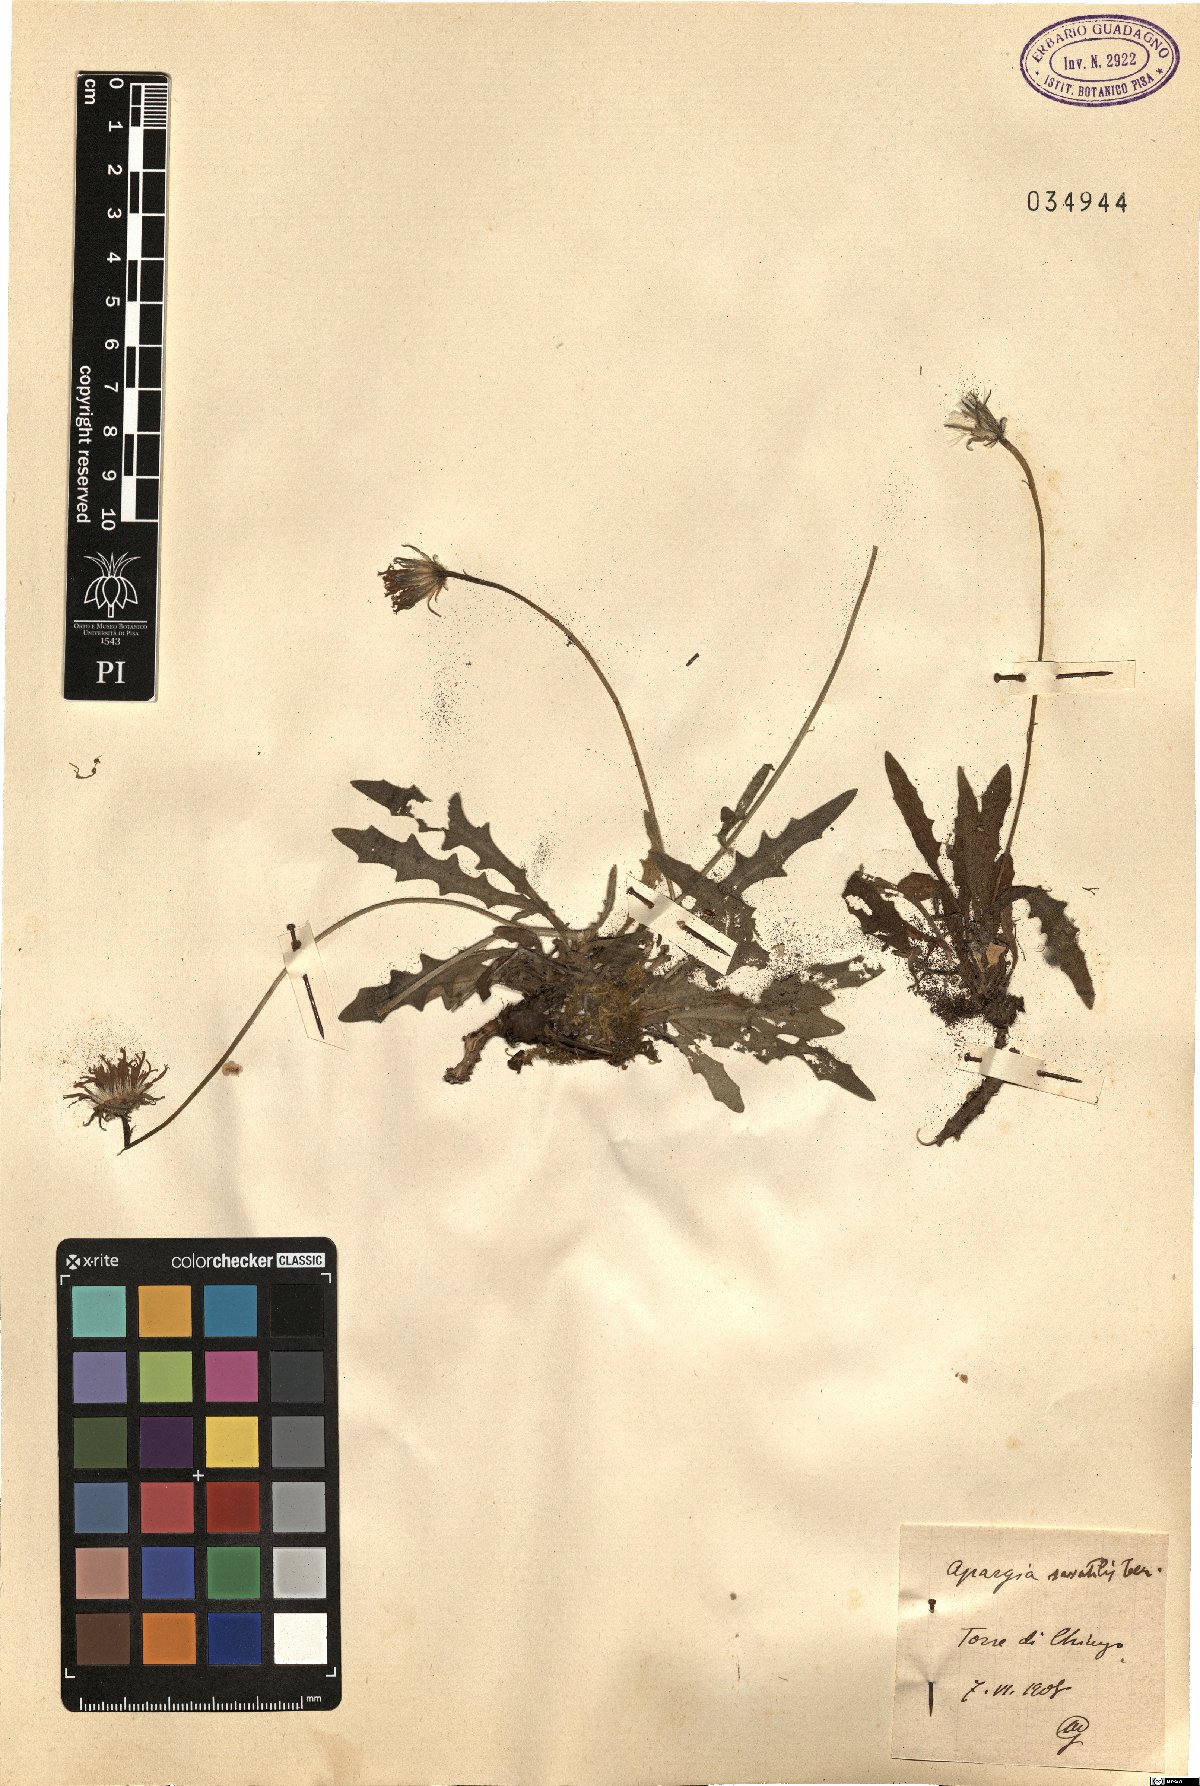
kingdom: Plantae
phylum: Tracheophyta
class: Magnoliopsida
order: Asterales
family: Asteraceae
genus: Leontodon
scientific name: Leontodon crispus
